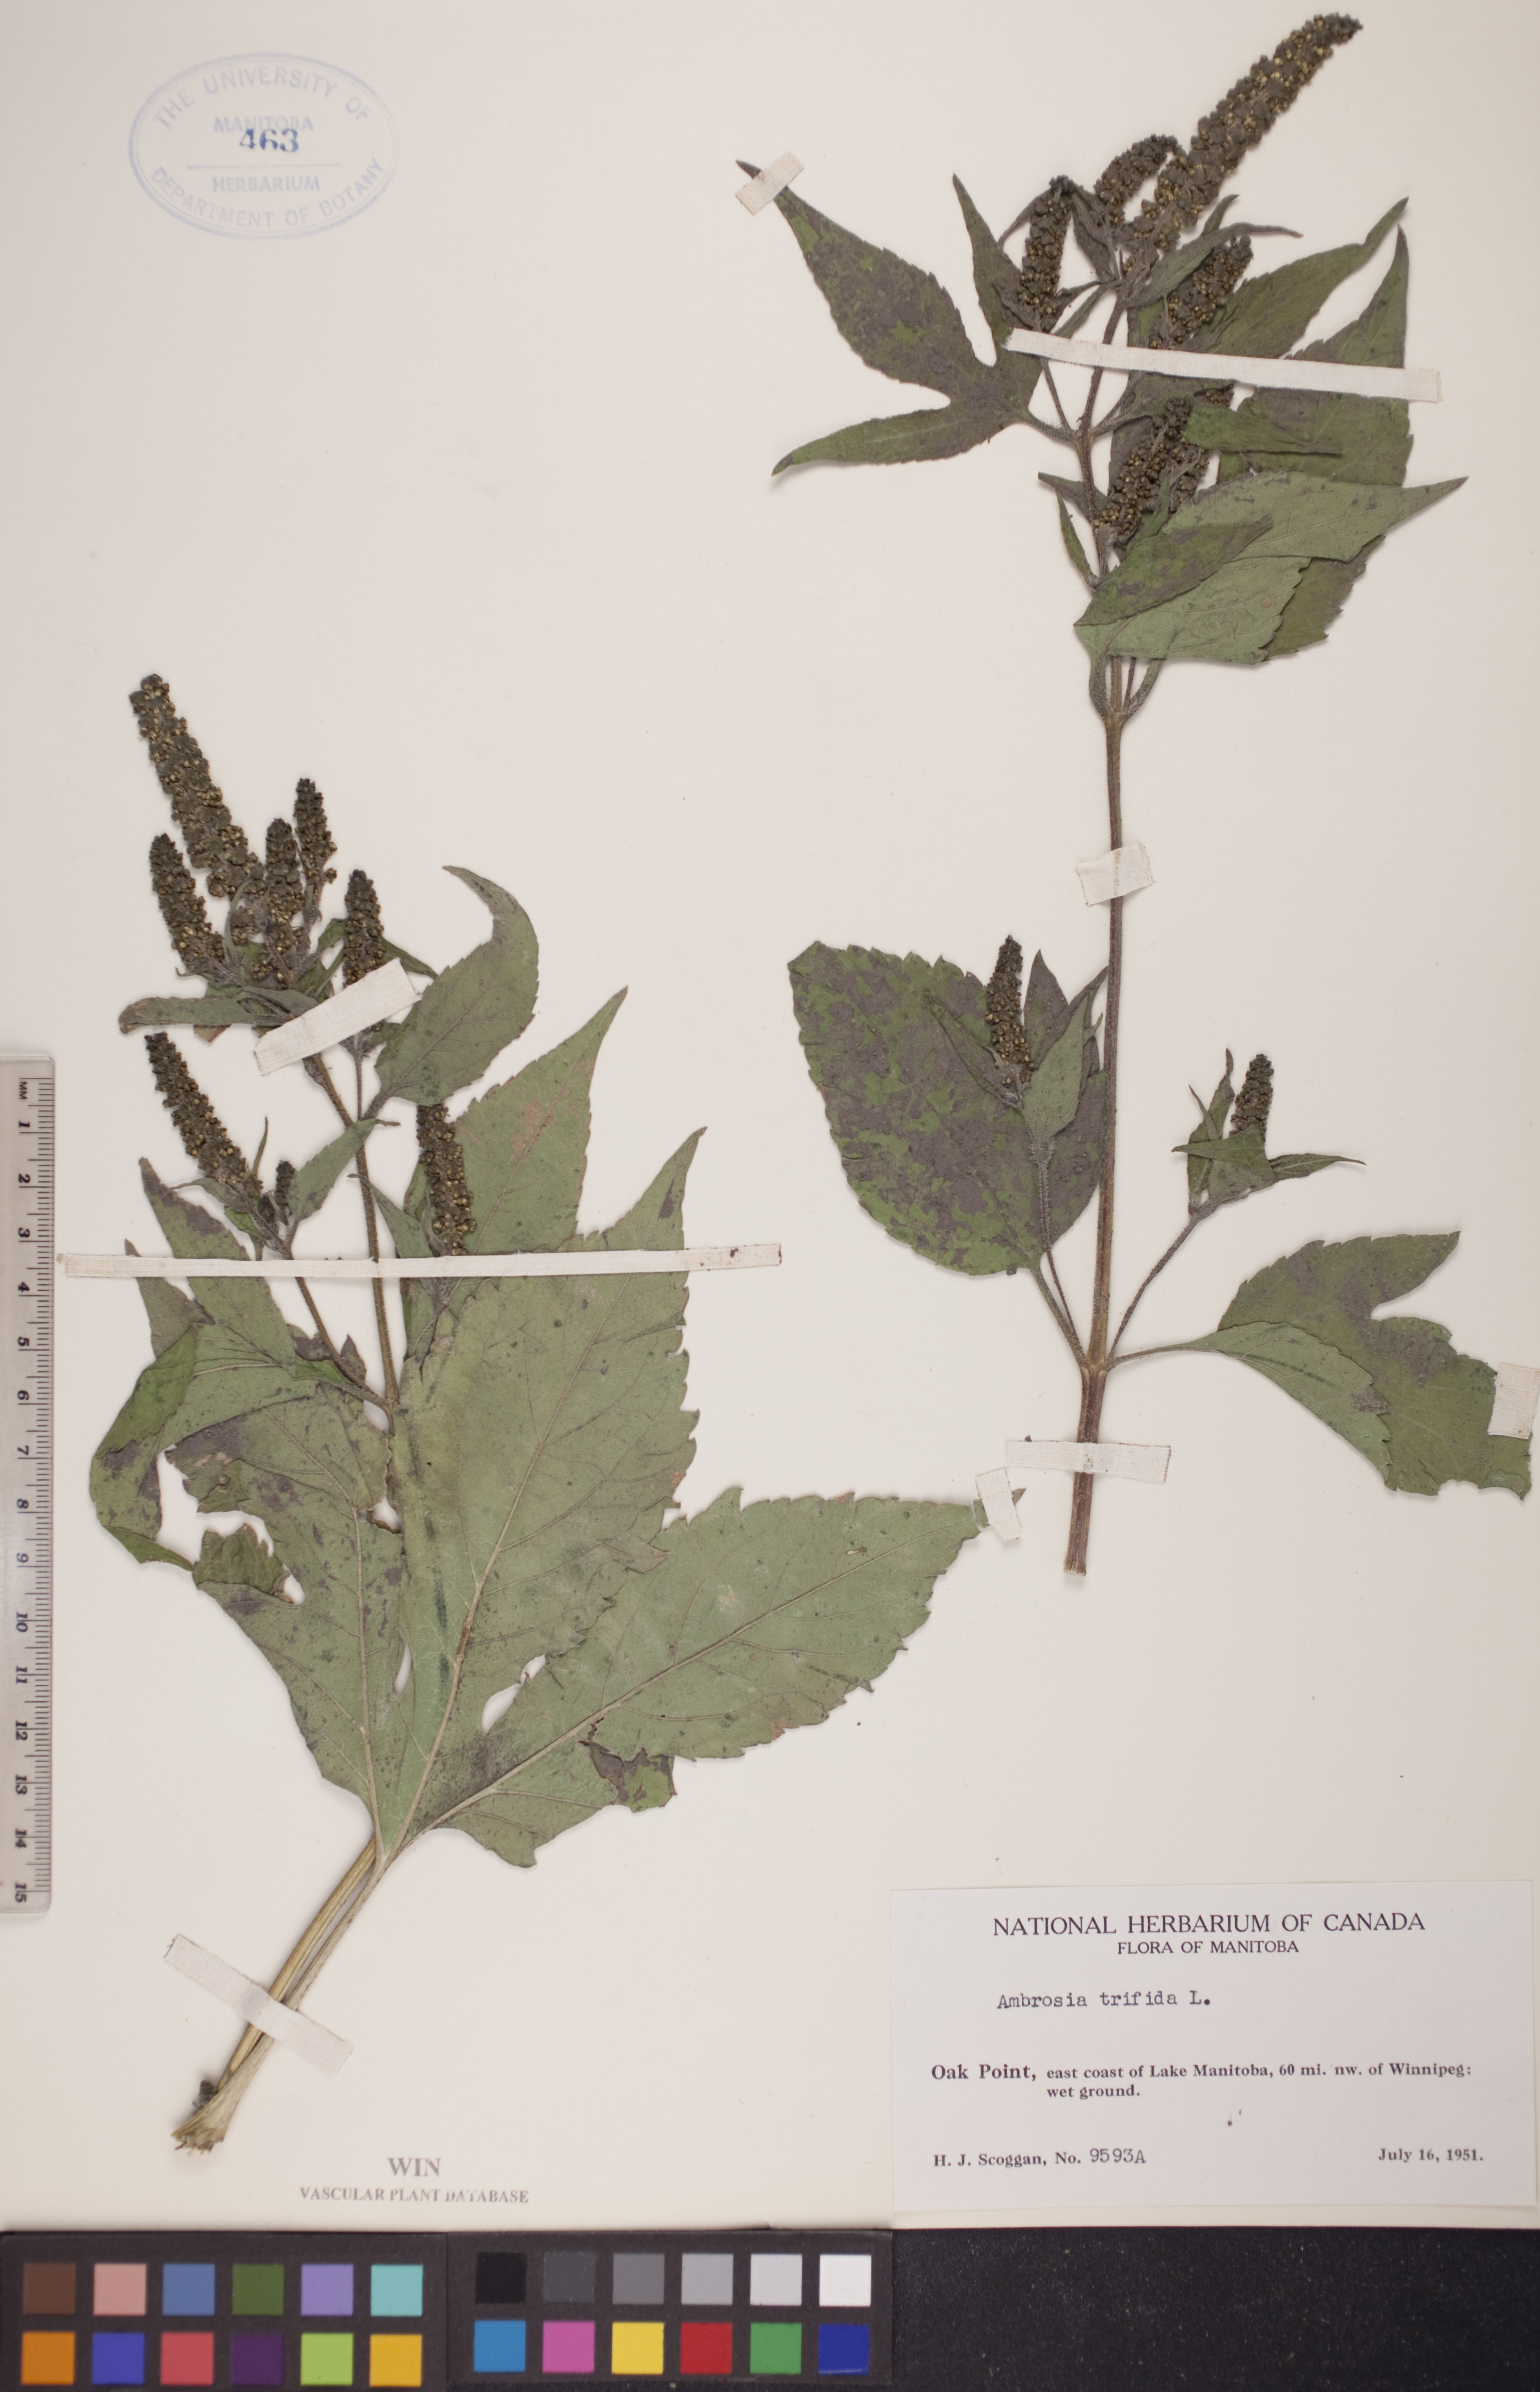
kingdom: Plantae
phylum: Tracheophyta
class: Magnoliopsida
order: Asterales
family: Asteraceae
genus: Ambrosia
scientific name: Ambrosia trifida
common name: Giant ragweed
